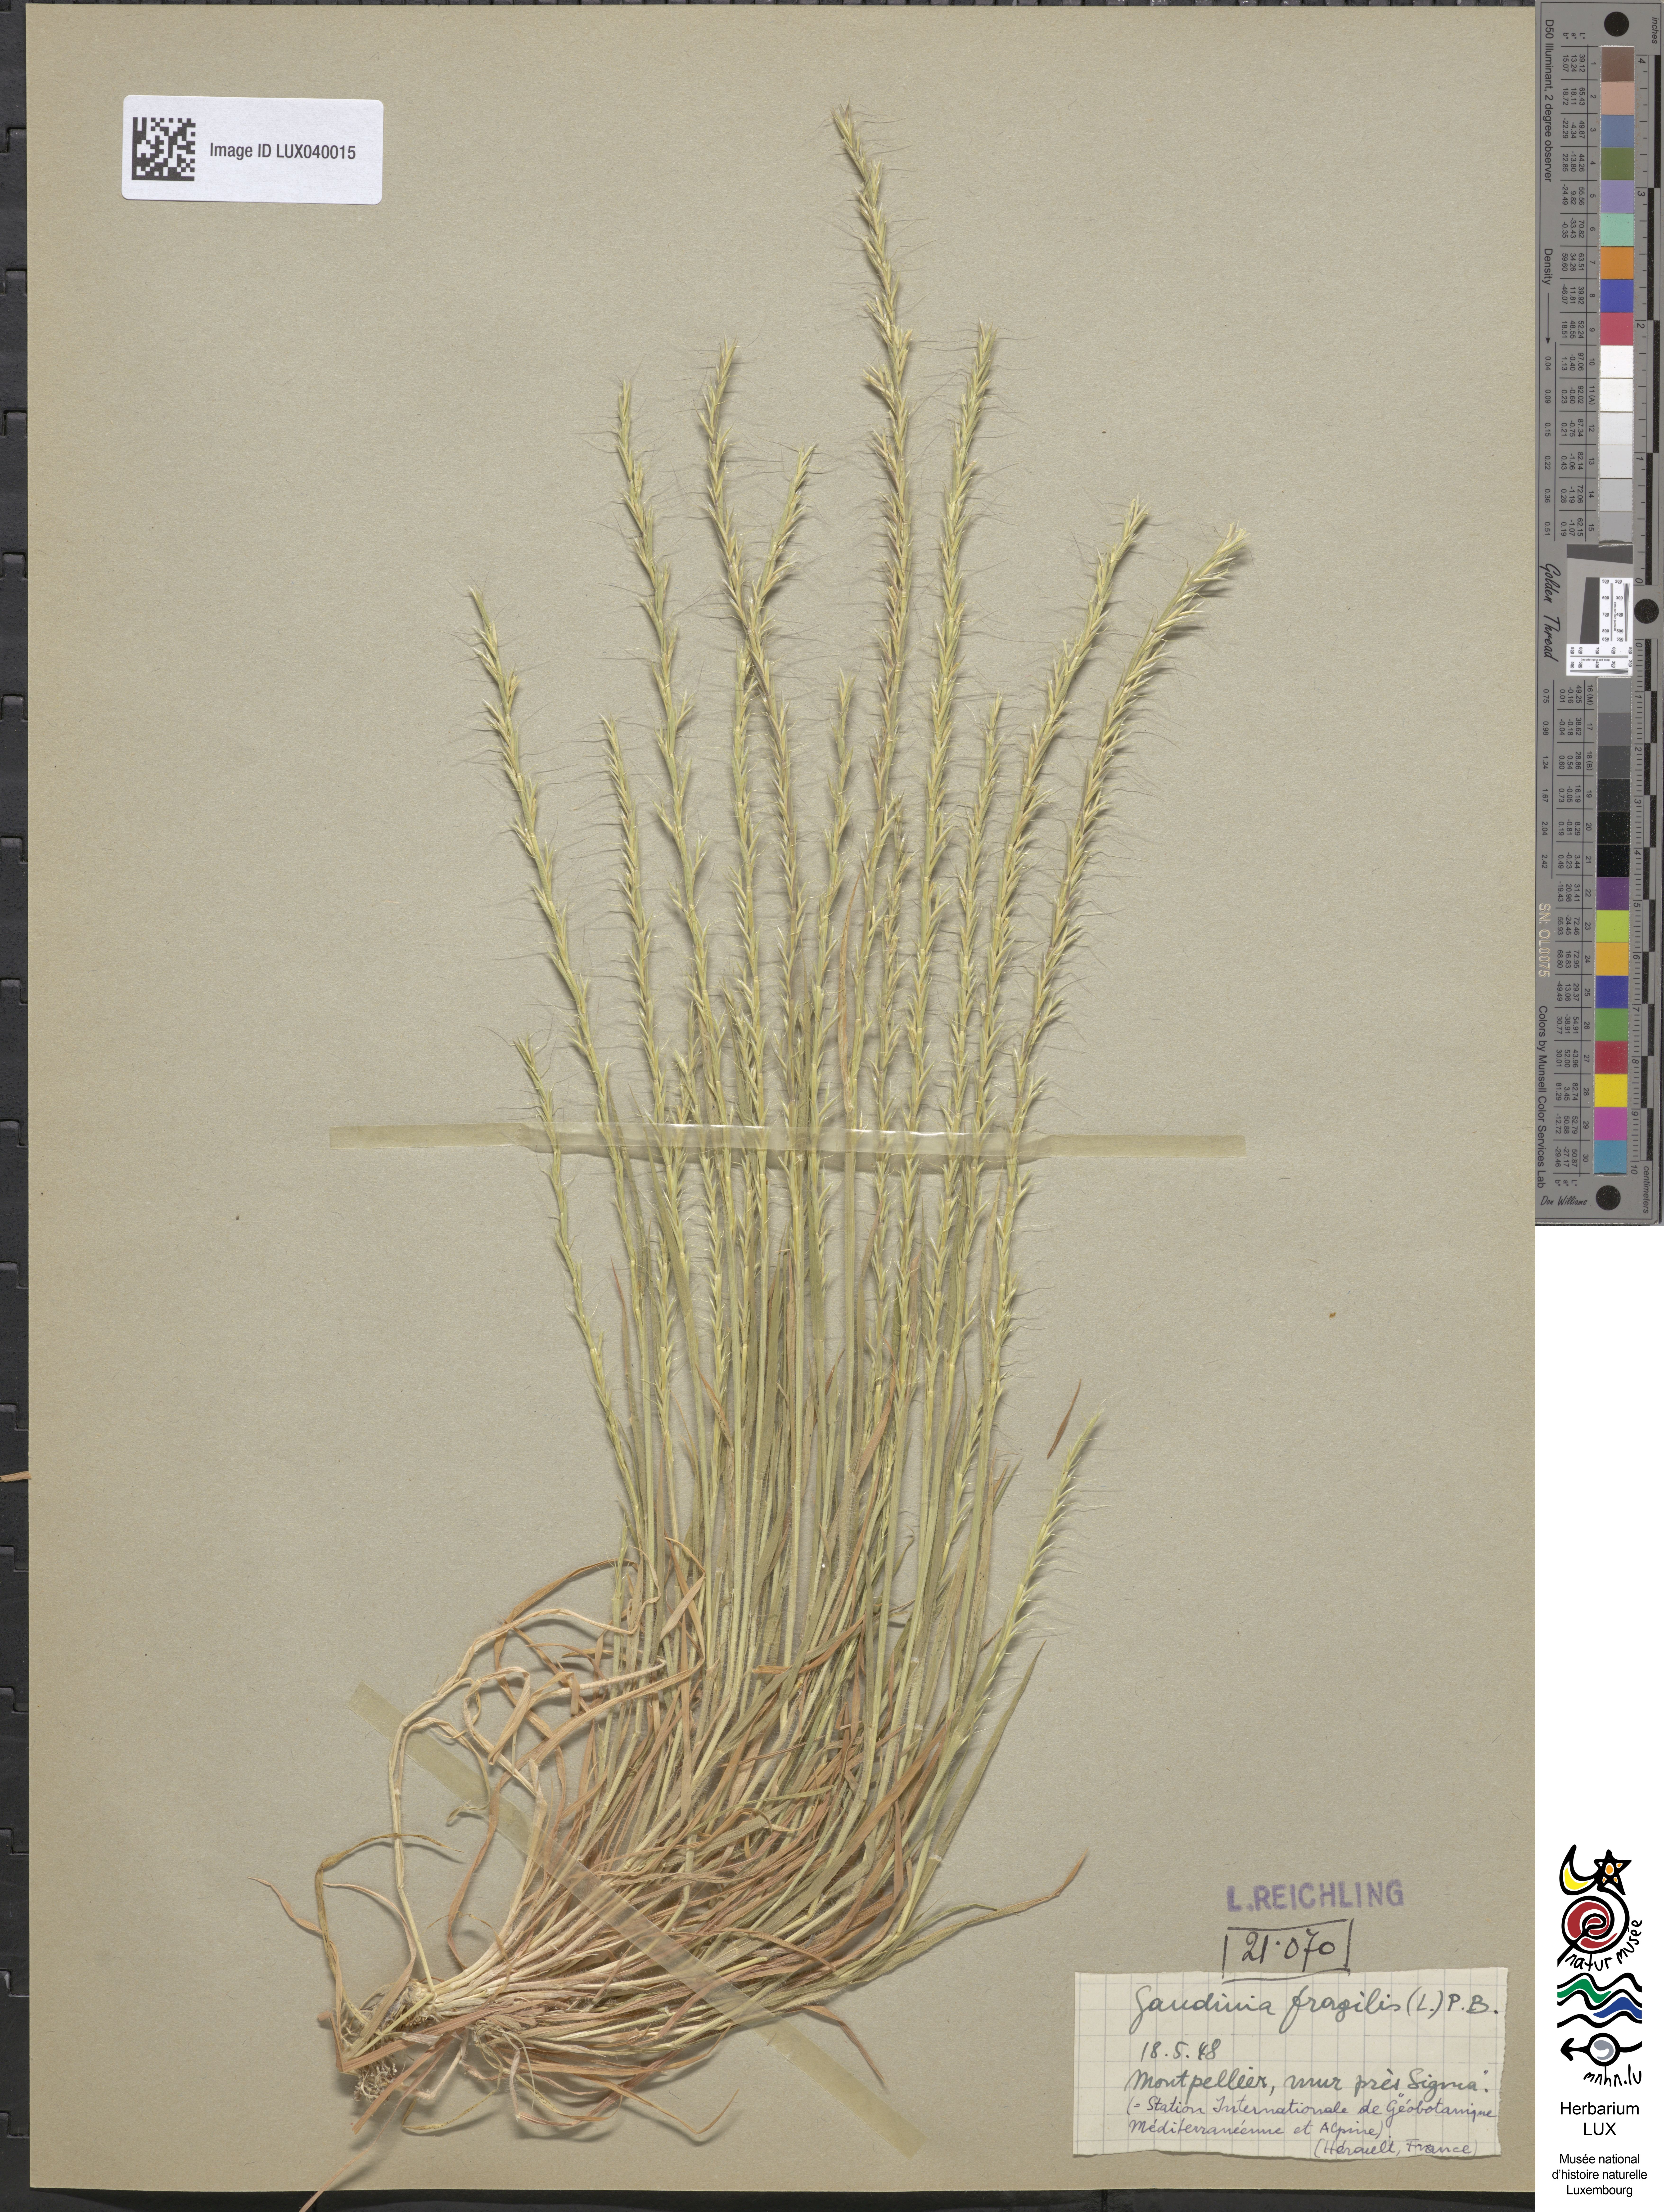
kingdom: Plantae
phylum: Tracheophyta
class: Liliopsida
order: Poales
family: Poaceae
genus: Gaudinia
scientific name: Gaudinia fragilis
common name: French oat-grass
